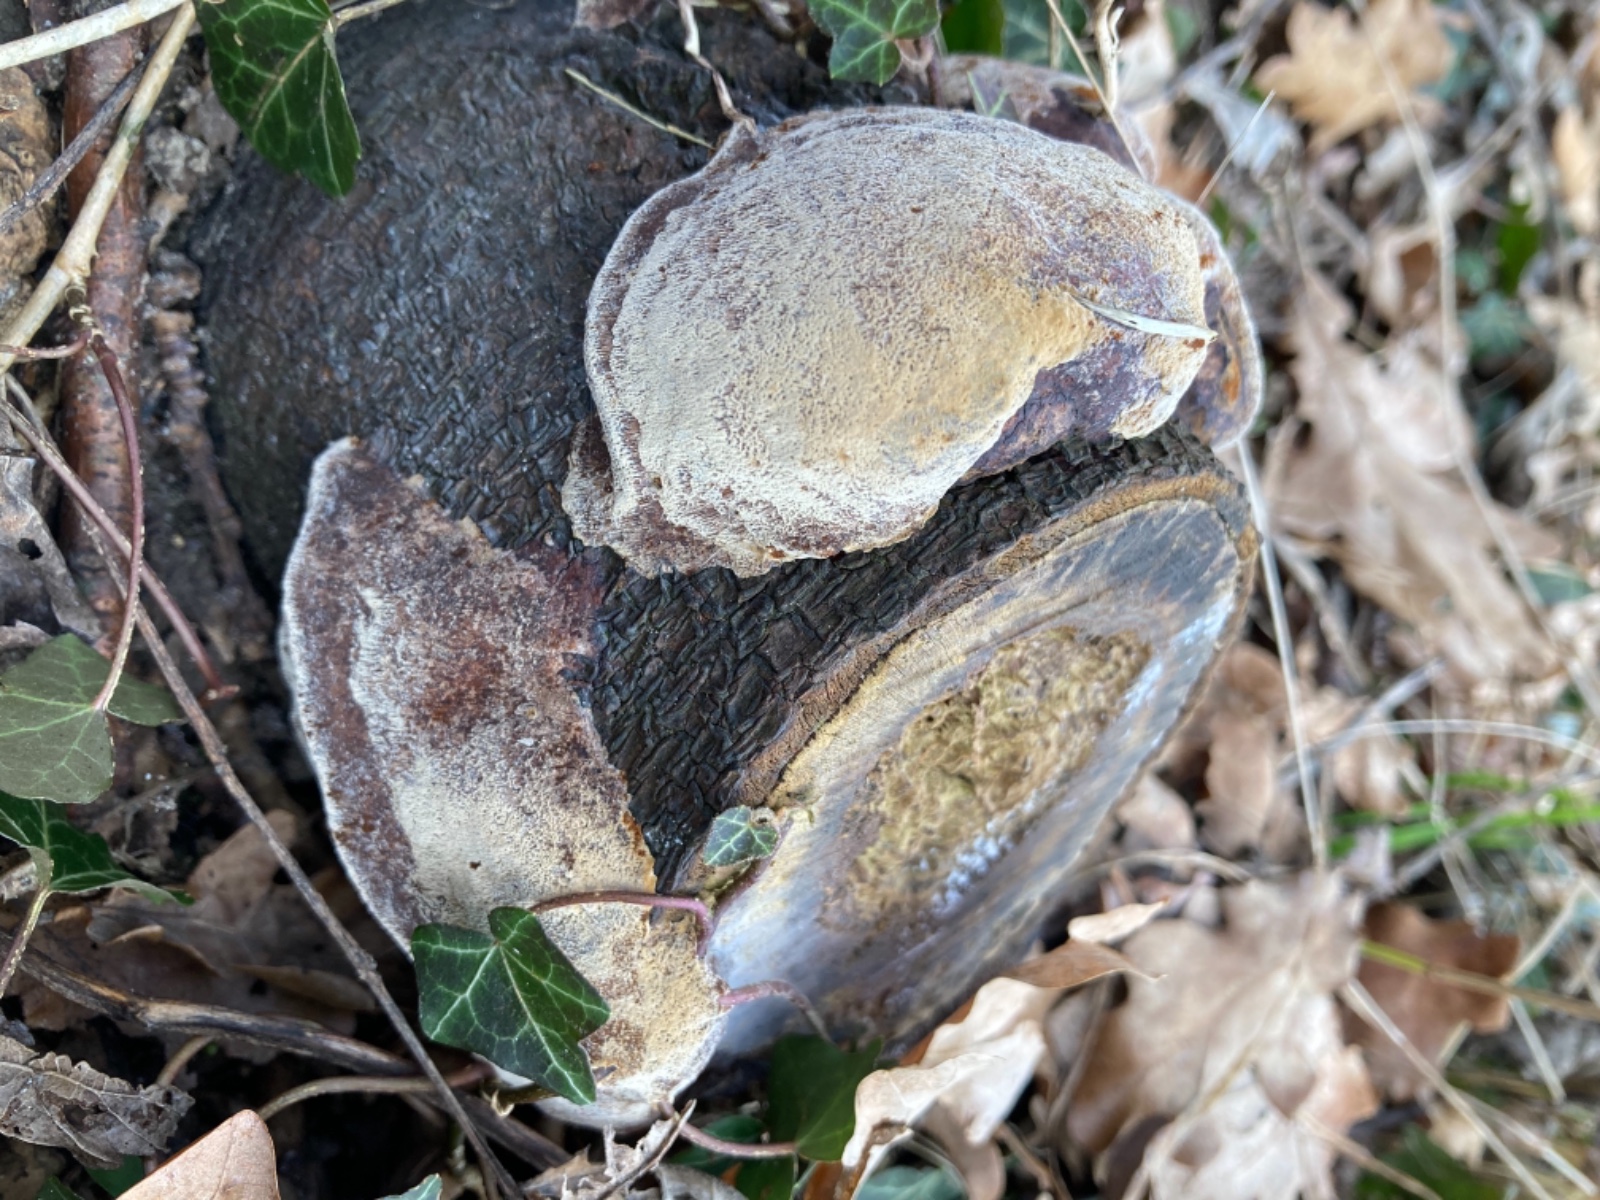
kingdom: Fungi
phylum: Basidiomycota
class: Agaricomycetes
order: Hymenochaetales
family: Hymenochaetaceae
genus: Phellinus
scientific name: Phellinus pomaceus
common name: blomme-ildporesvamp
